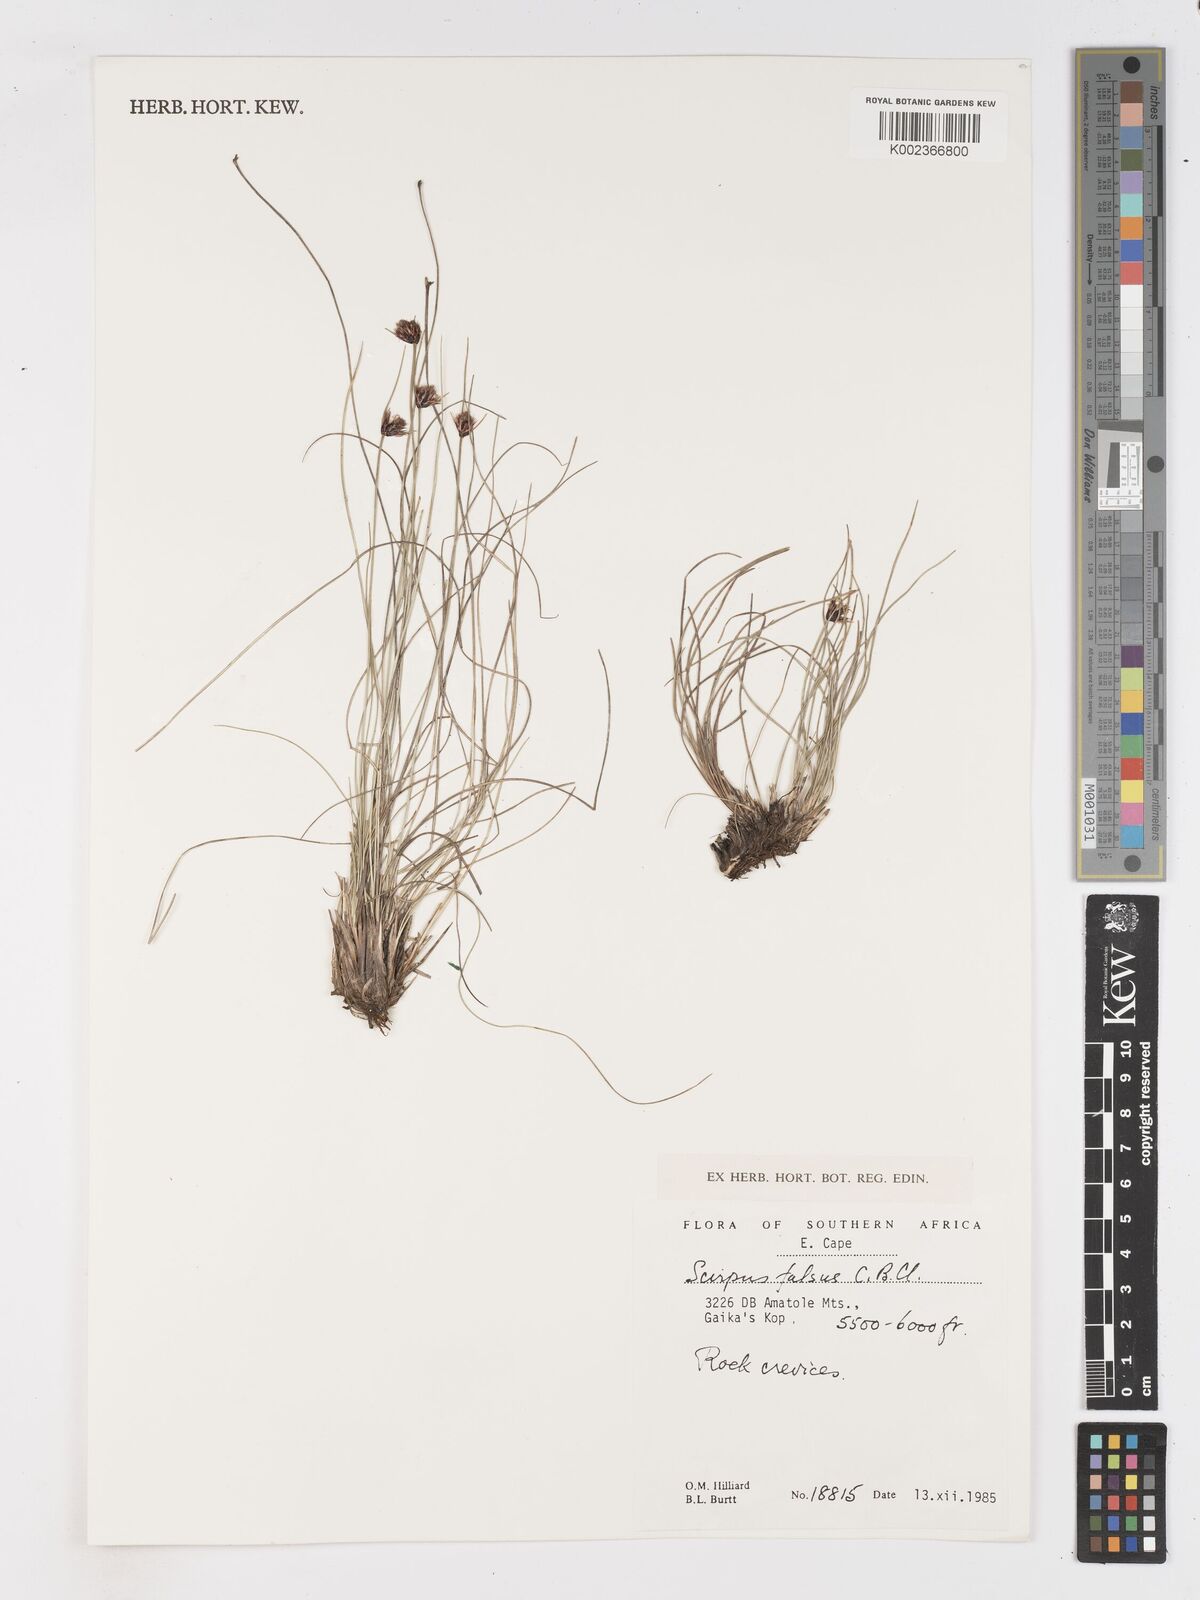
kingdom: Plantae
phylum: Tracheophyta
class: Liliopsida
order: Poales
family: Cyperaceae
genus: Dracoscirpoides
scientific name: Dracoscirpoides falsa
